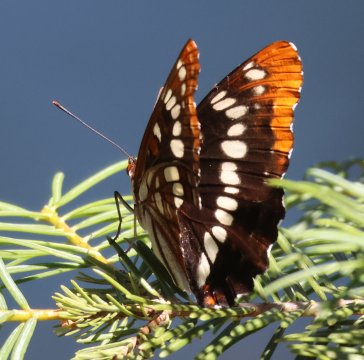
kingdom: Animalia
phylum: Arthropoda
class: Insecta
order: Lepidoptera
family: Nymphalidae
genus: Limenitis
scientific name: Limenitis lorquini
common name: Lorquin's Admiral
